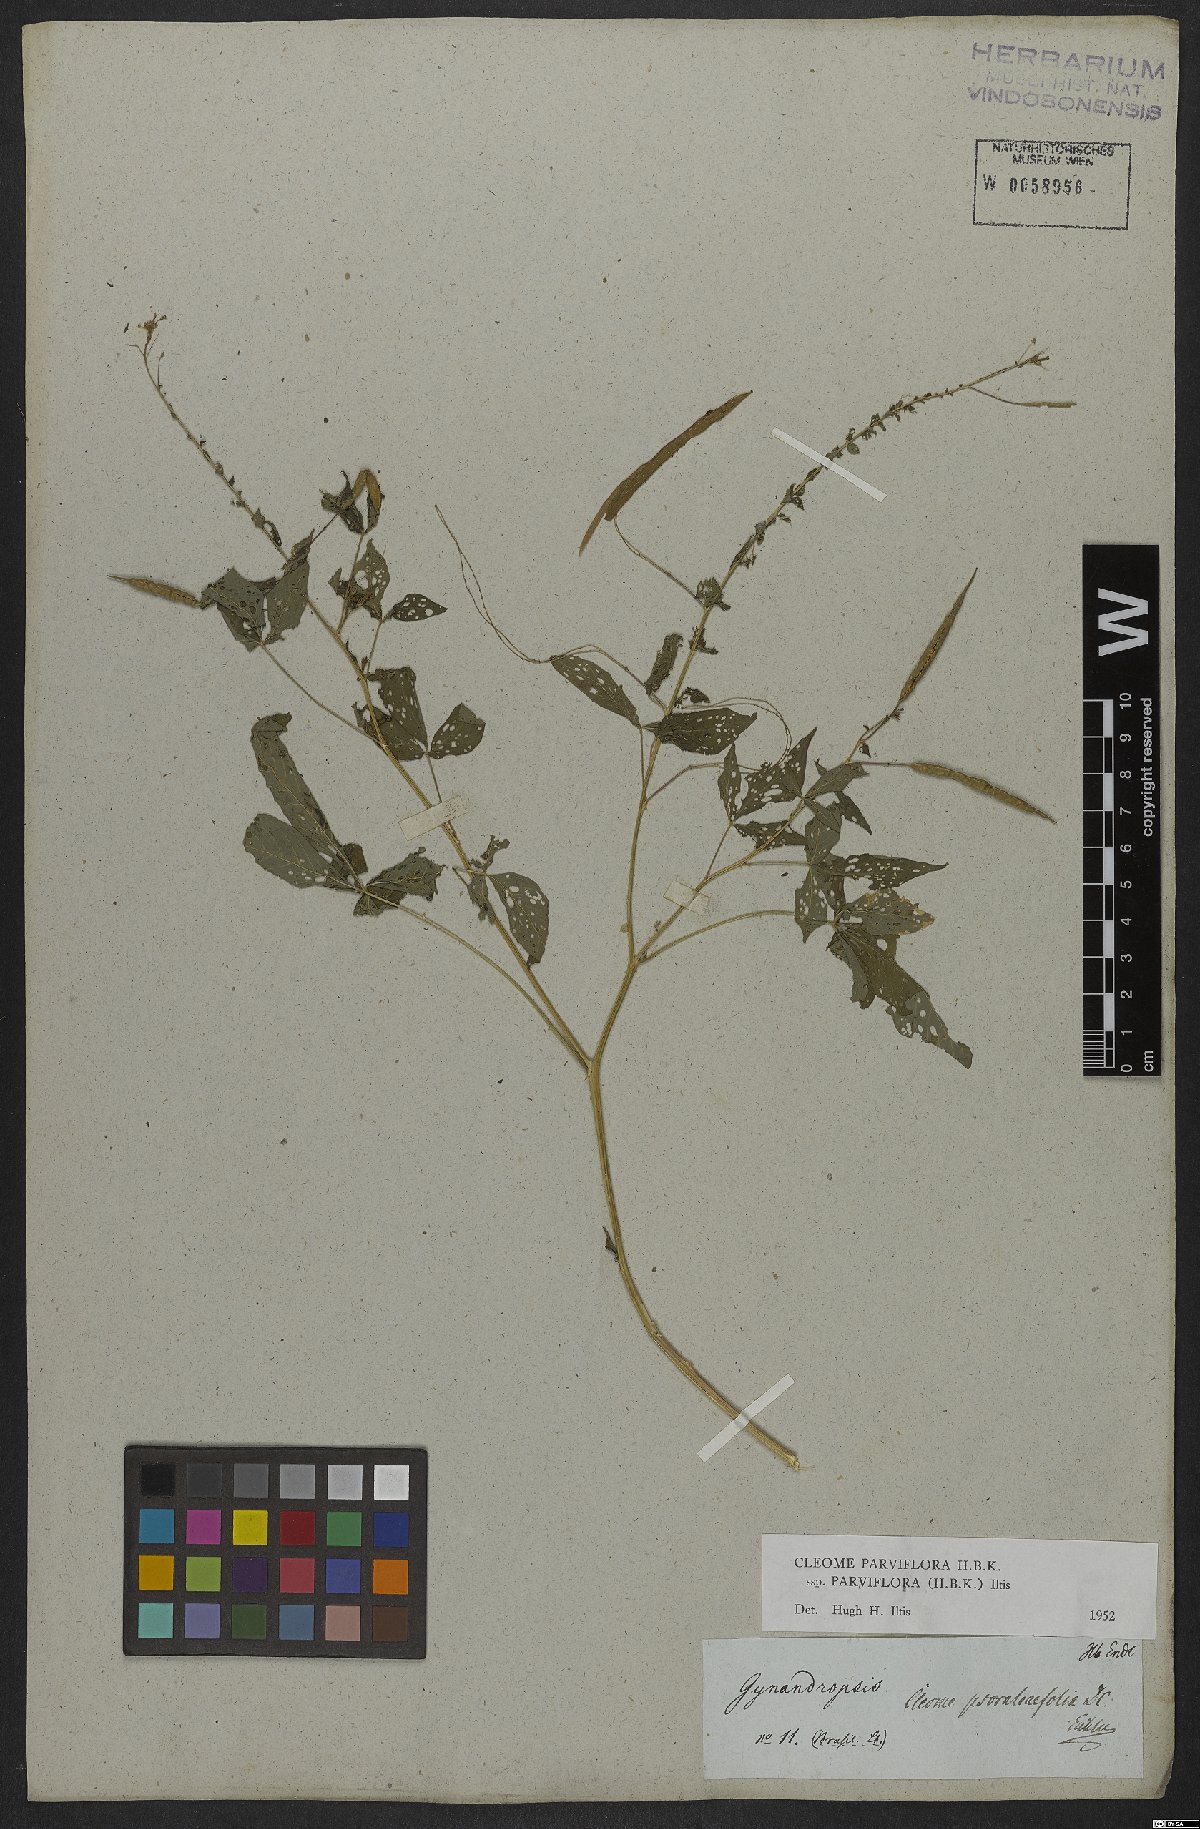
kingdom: Plantae
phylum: Tracheophyta
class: Magnoliopsida
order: Brassicales
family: Cleomaceae
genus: Tarenaya
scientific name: Tarenaya parviflora
